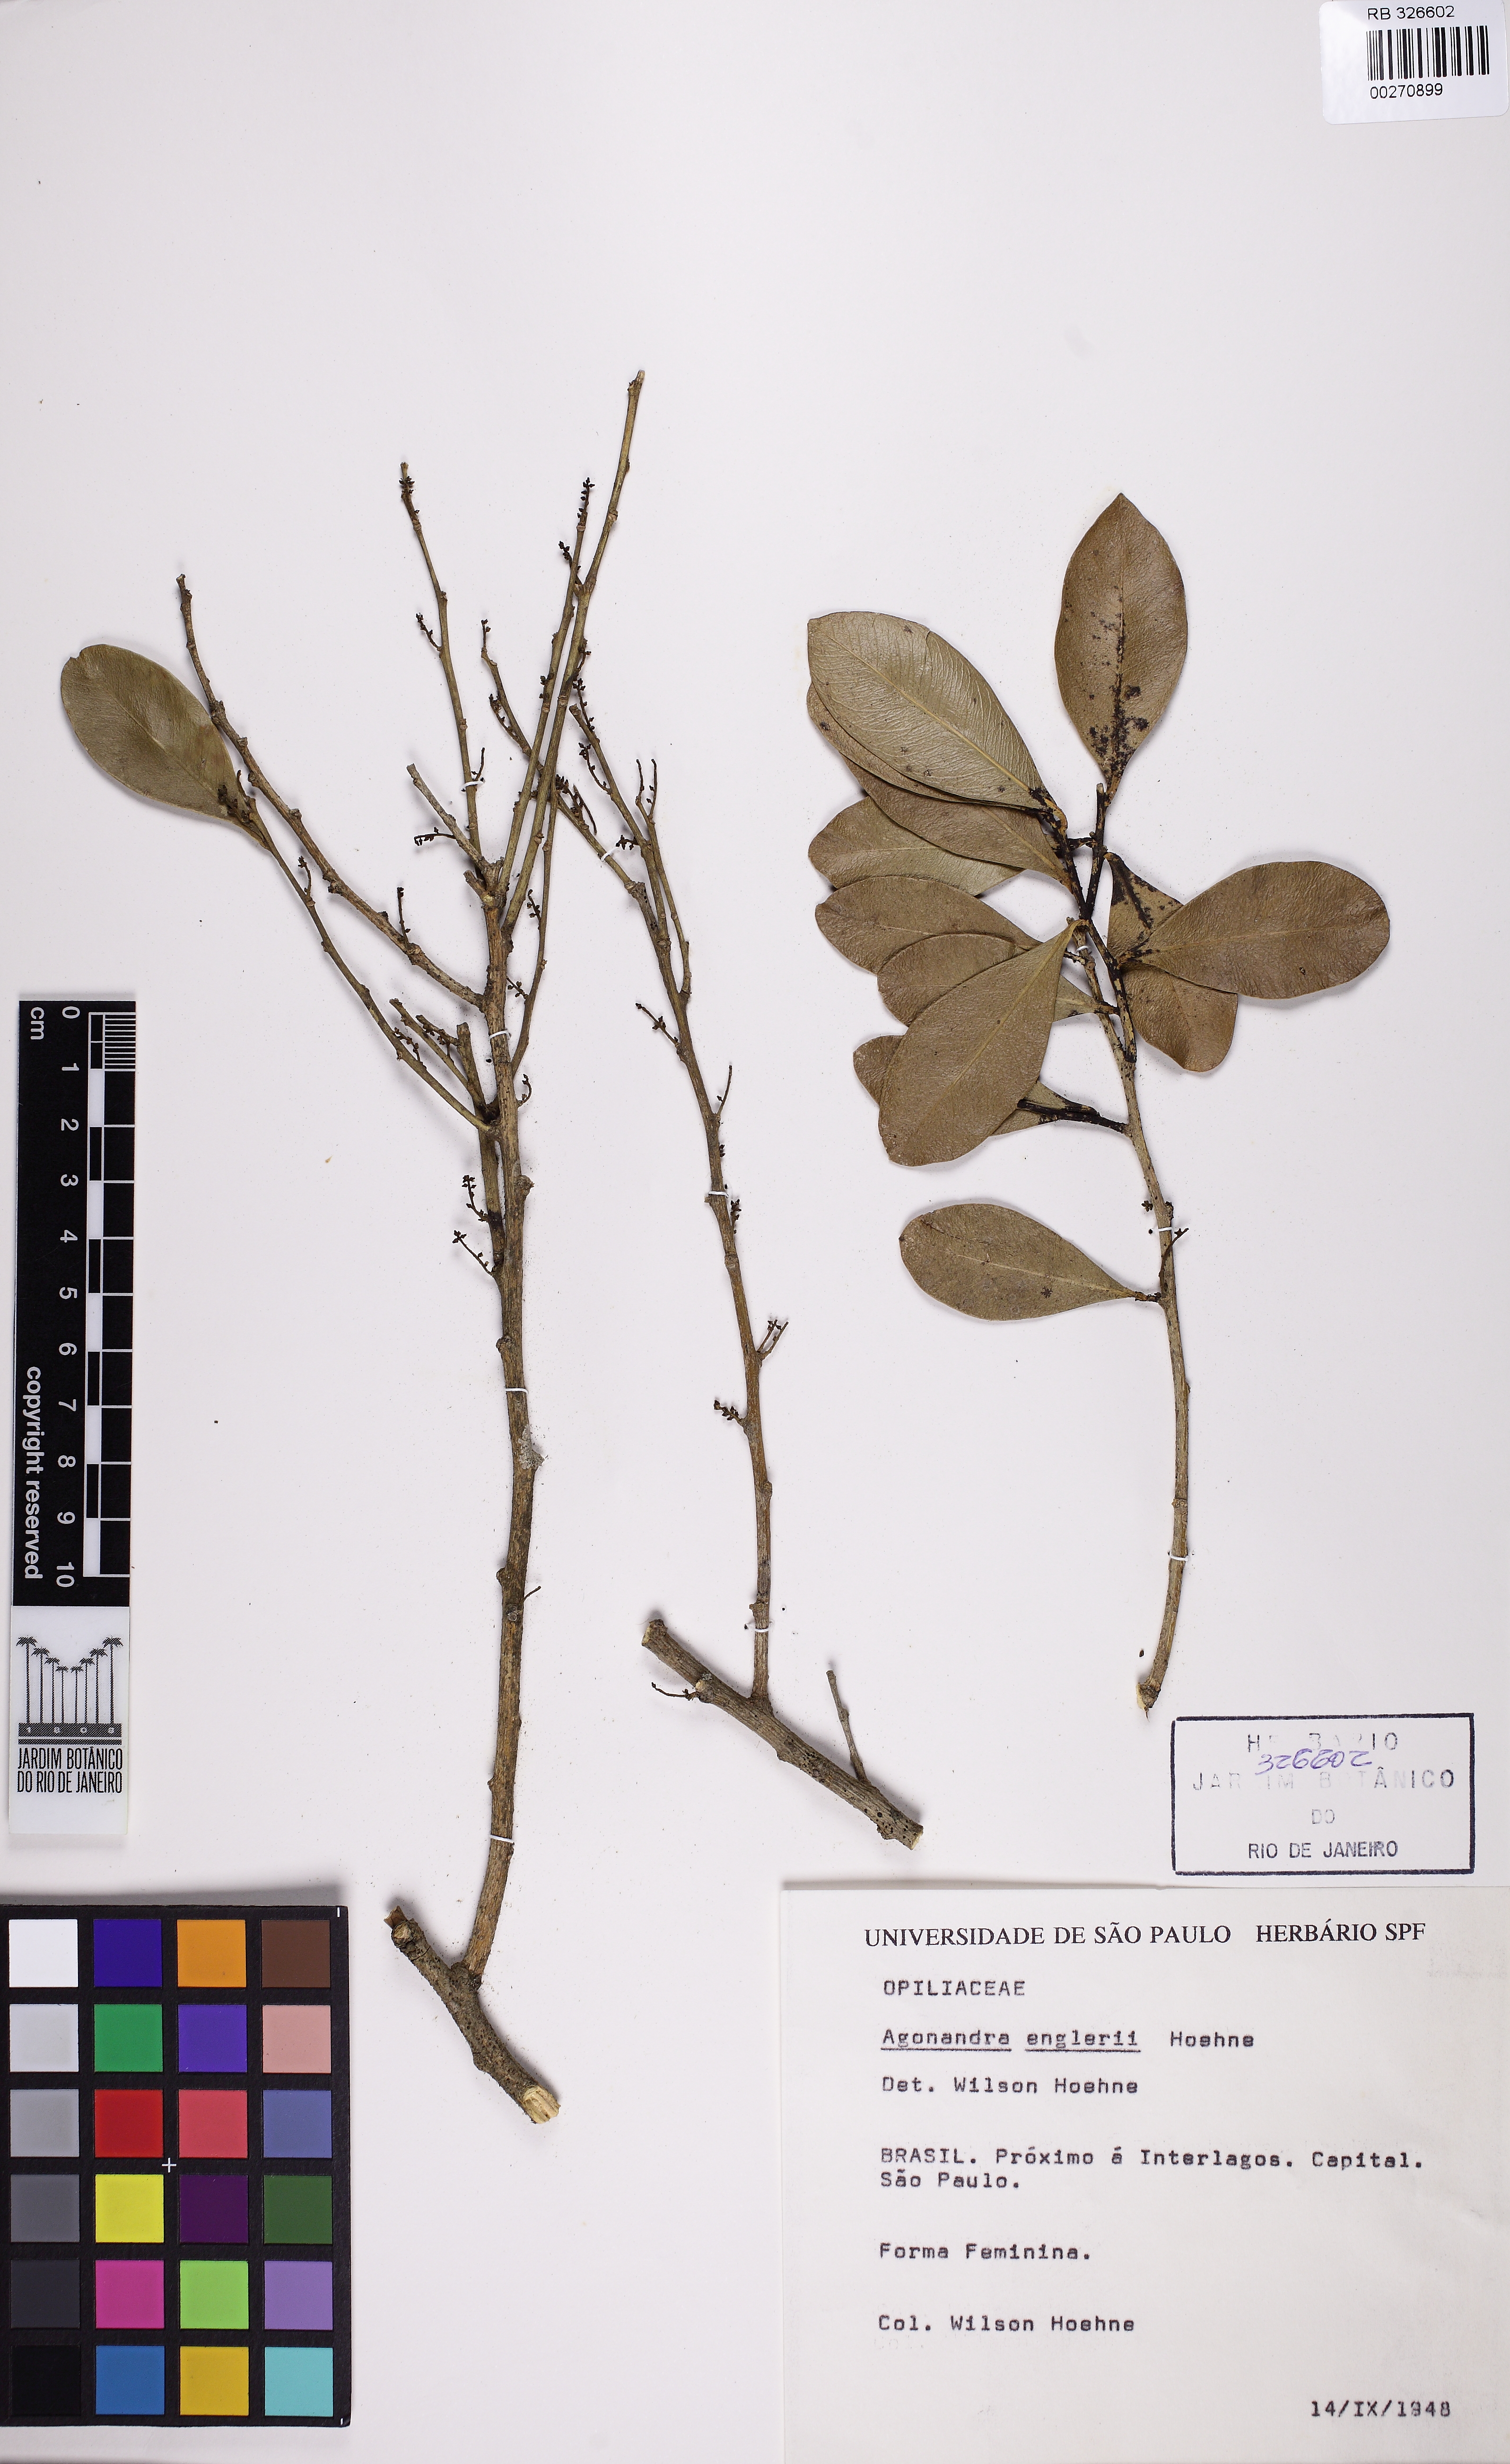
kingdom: Plantae
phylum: Tracheophyta
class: Magnoliopsida
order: Santalales
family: Opiliaceae
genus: Agonandra
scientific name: Agonandra excelsa
